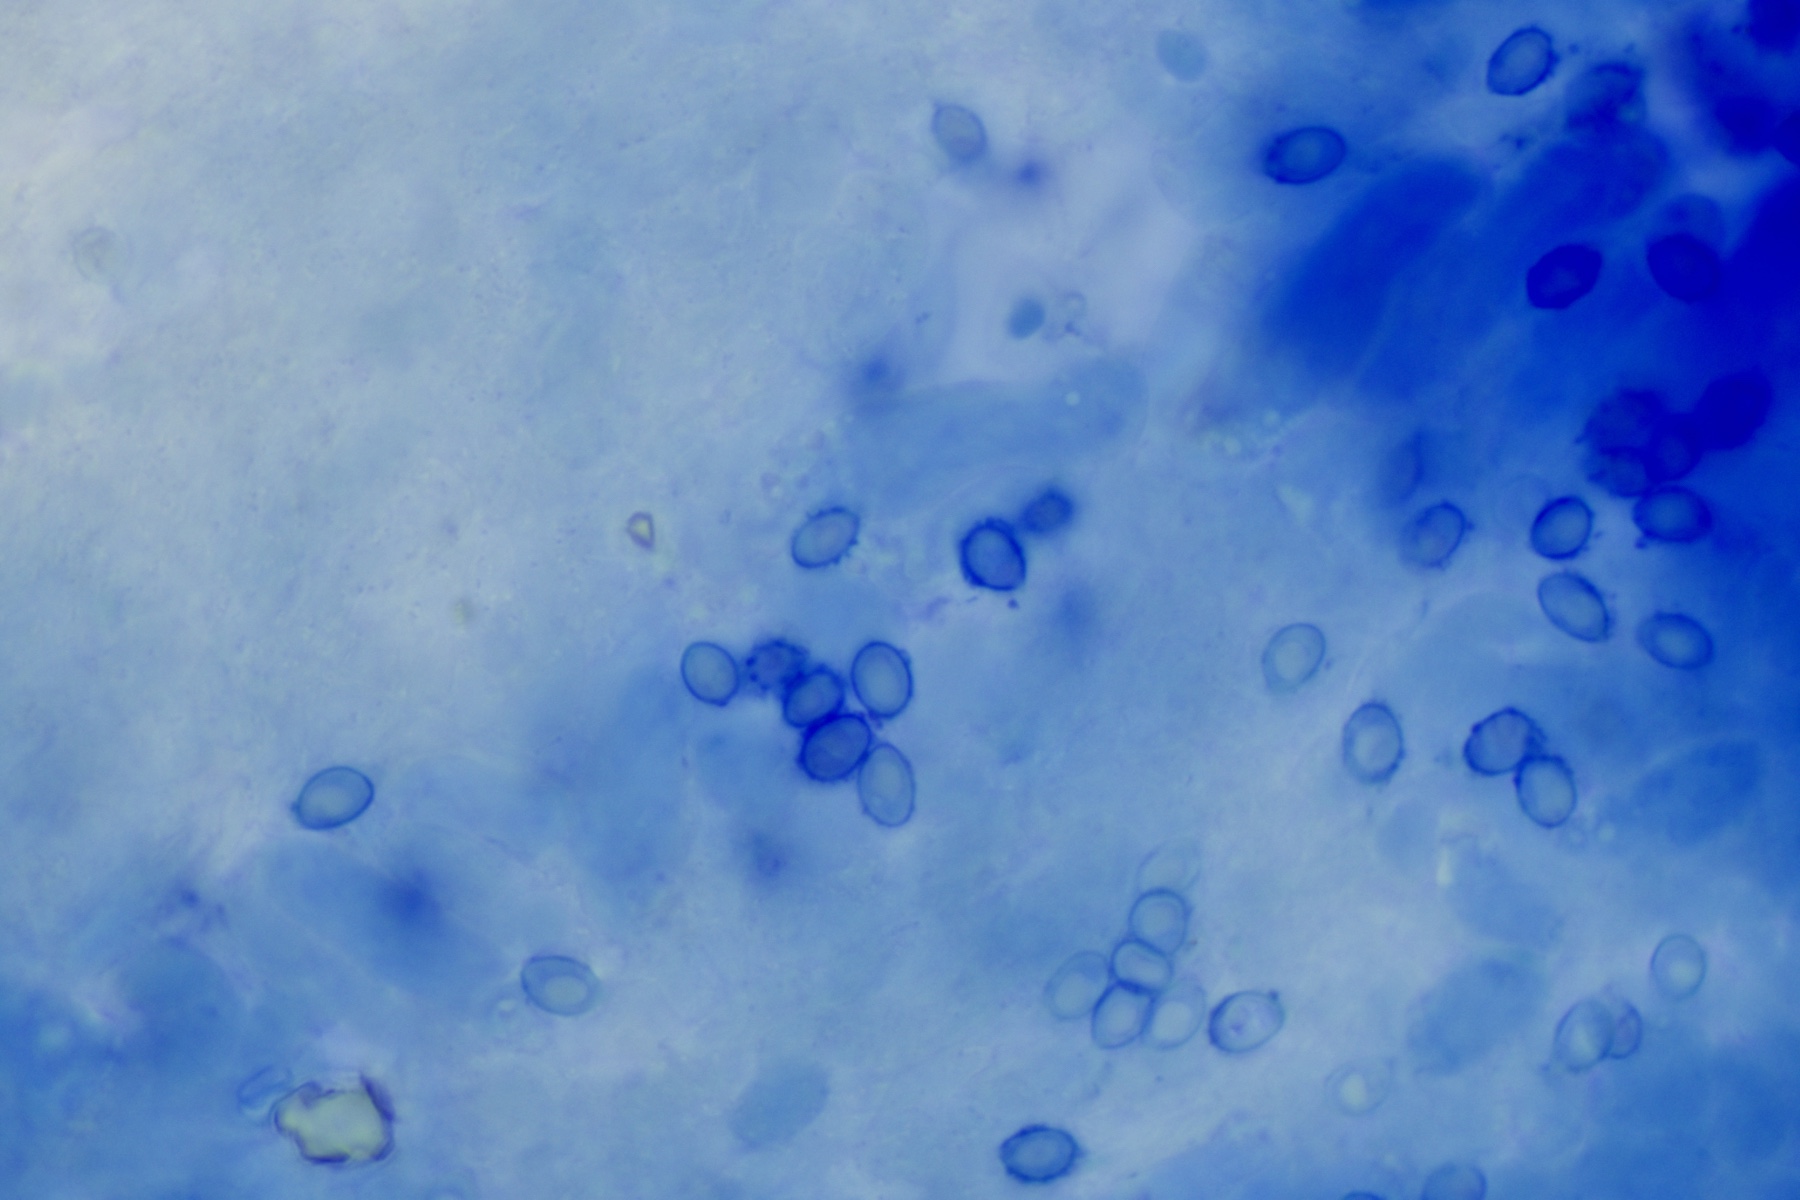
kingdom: Fungi
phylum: Basidiomycota
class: Agaricomycetes
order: Agaricales
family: Stephanosporaceae
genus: Lindtneria
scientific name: Lindtneria
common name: citrushinde
